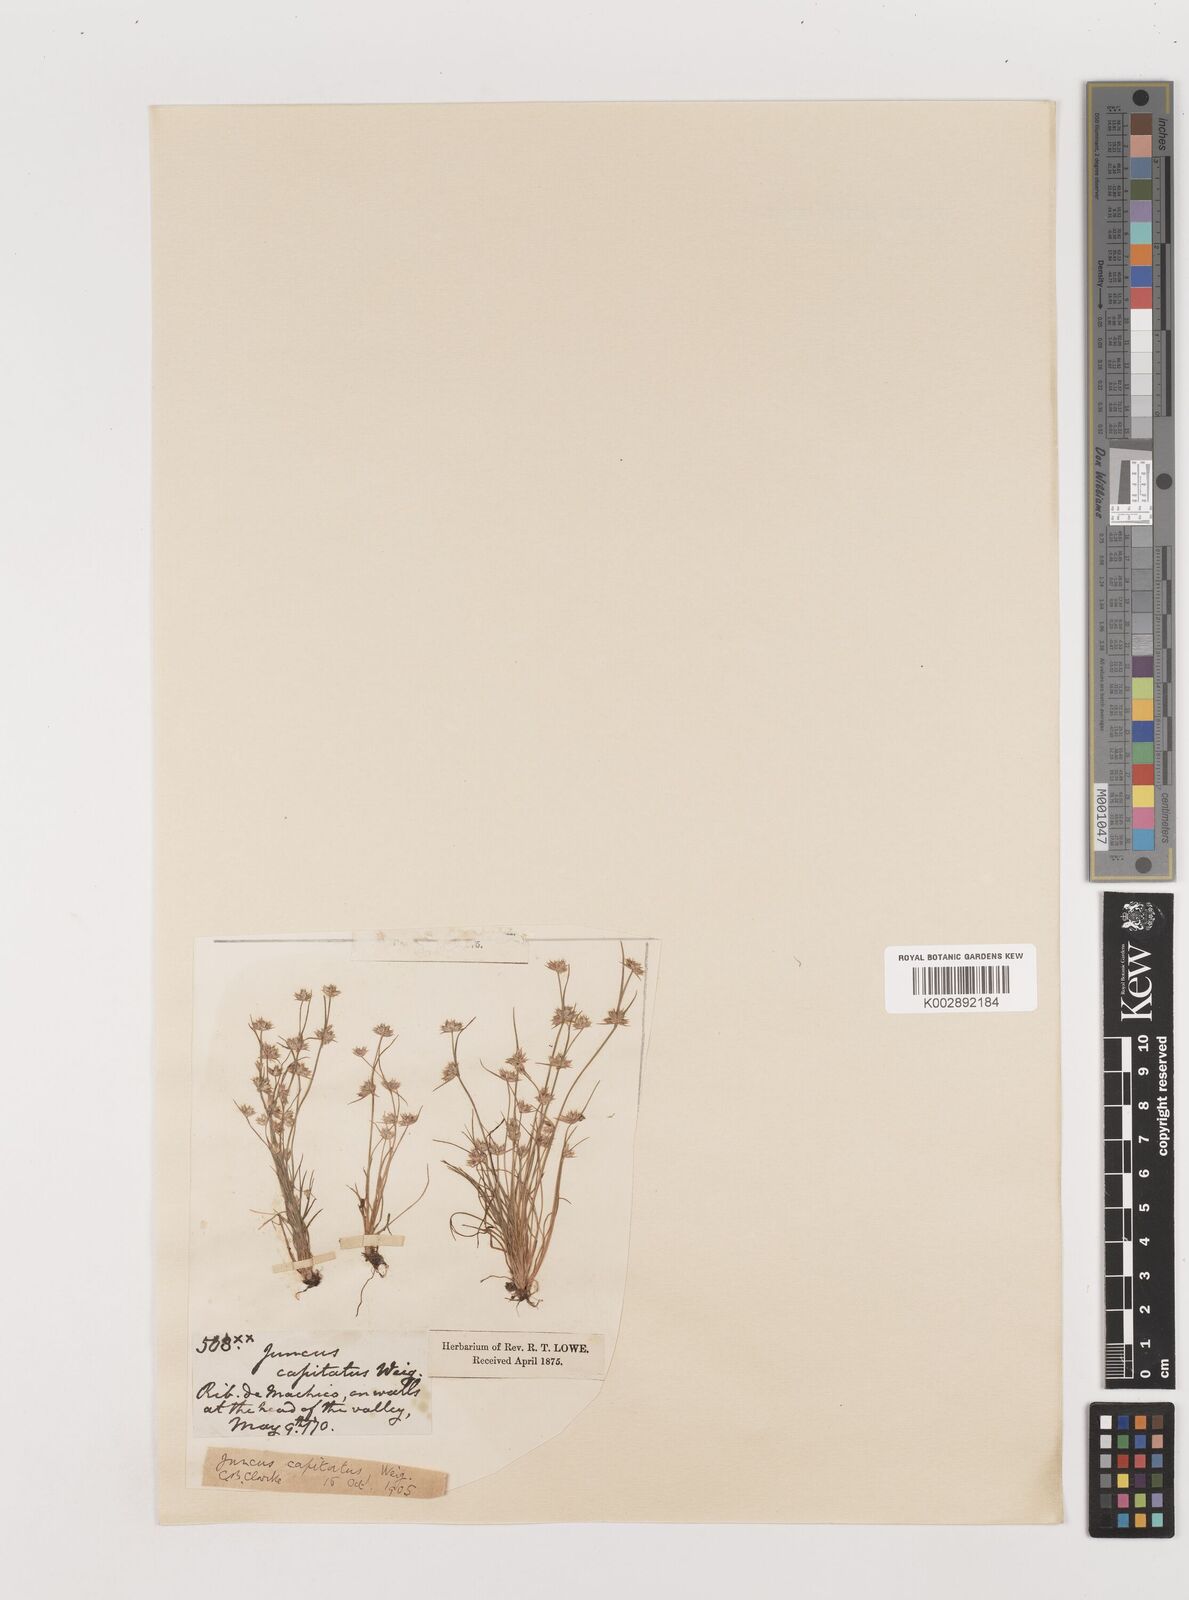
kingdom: Plantae
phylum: Tracheophyta
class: Liliopsida
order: Poales
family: Juncaceae
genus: Juncus
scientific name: Juncus capitatus
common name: Dwarf rush
